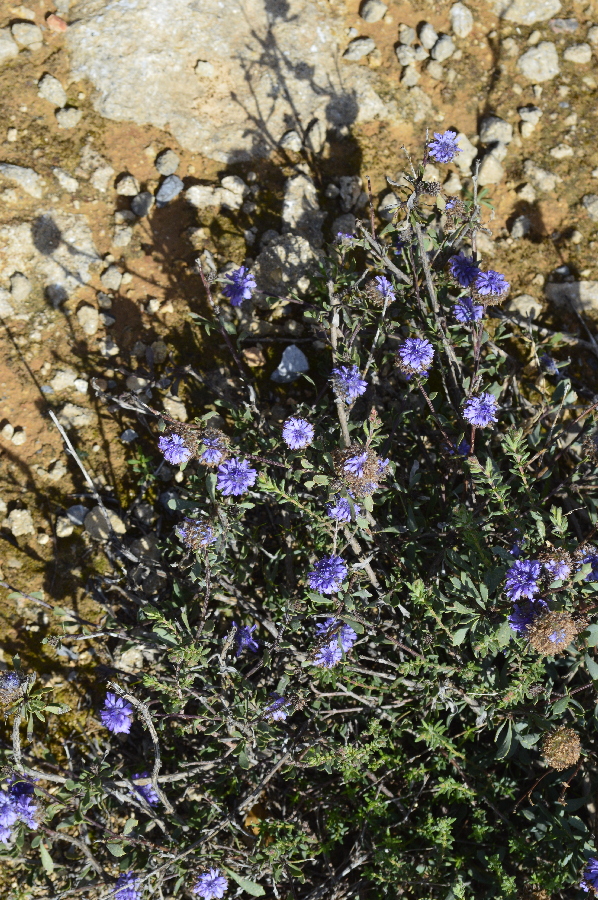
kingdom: Plantae
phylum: Tracheophyta
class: Magnoliopsida
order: Lamiales
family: Plantaginaceae
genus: Globularia
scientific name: Globularia alypum
